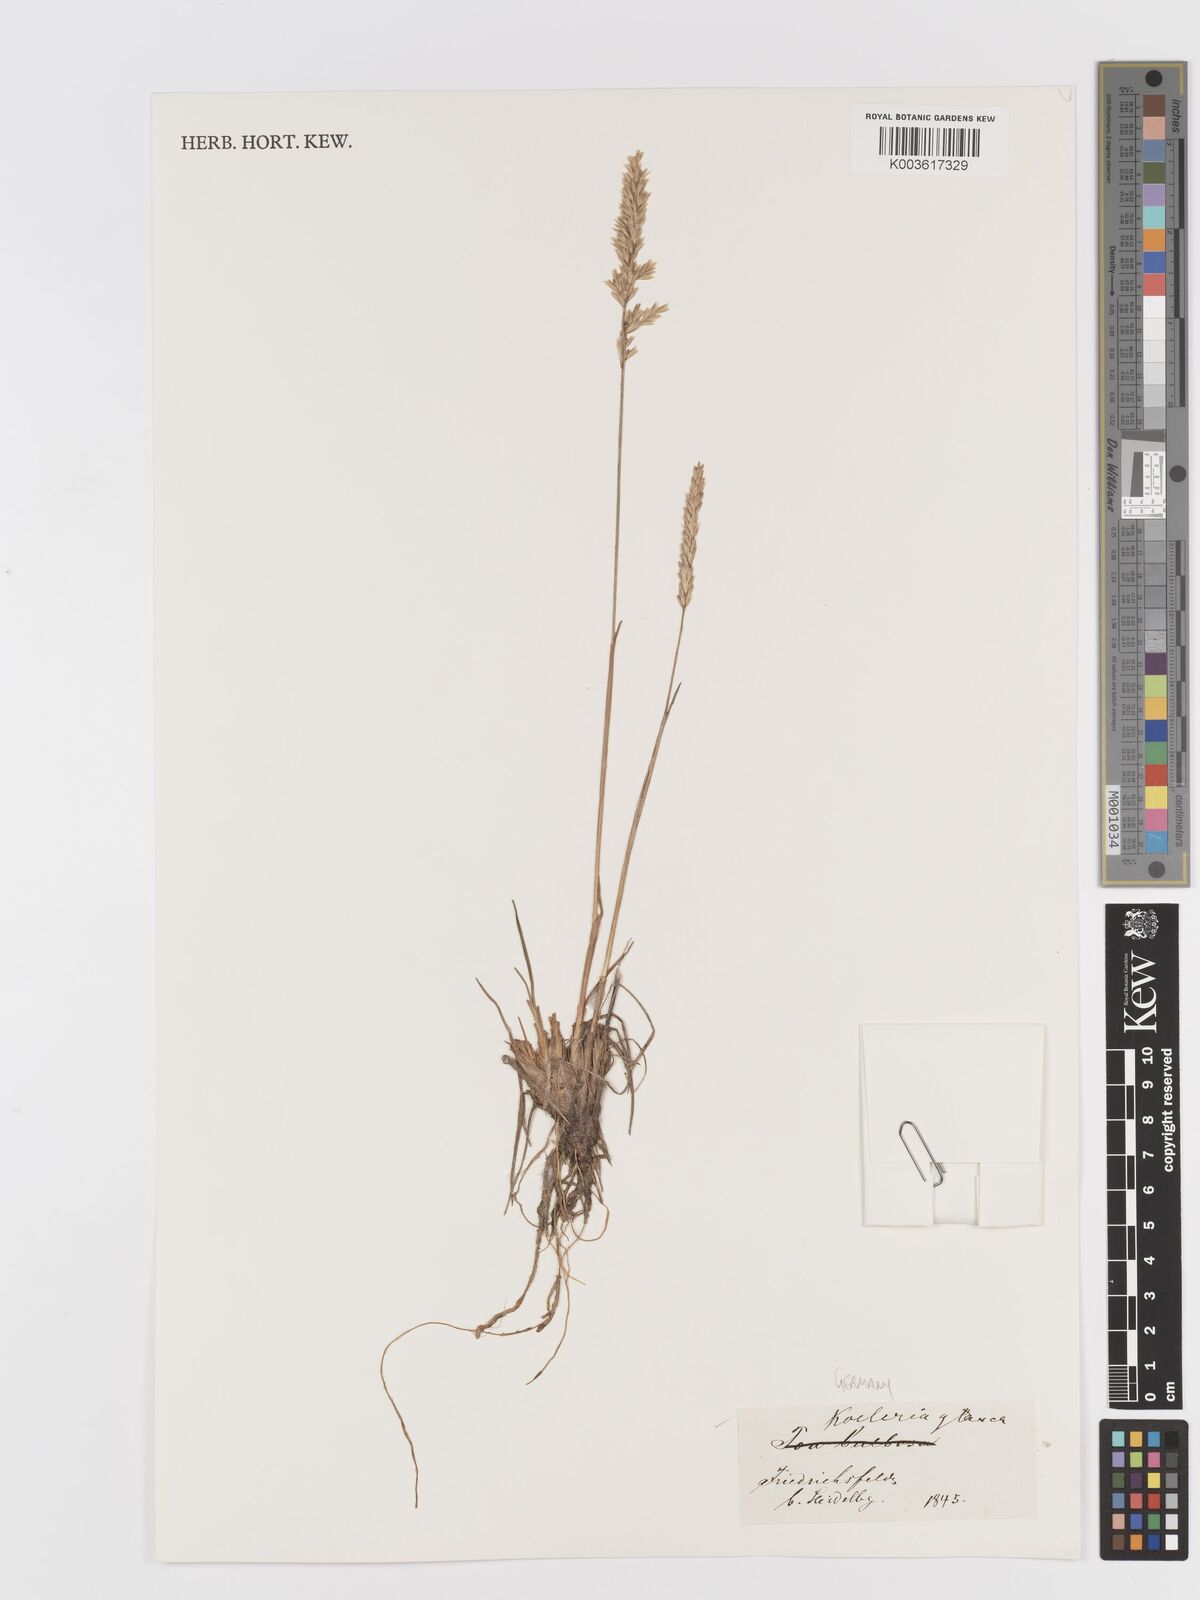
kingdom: Plantae
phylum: Tracheophyta
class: Liliopsida
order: Poales
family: Poaceae
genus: Koeleria
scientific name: Koeleria glauca
